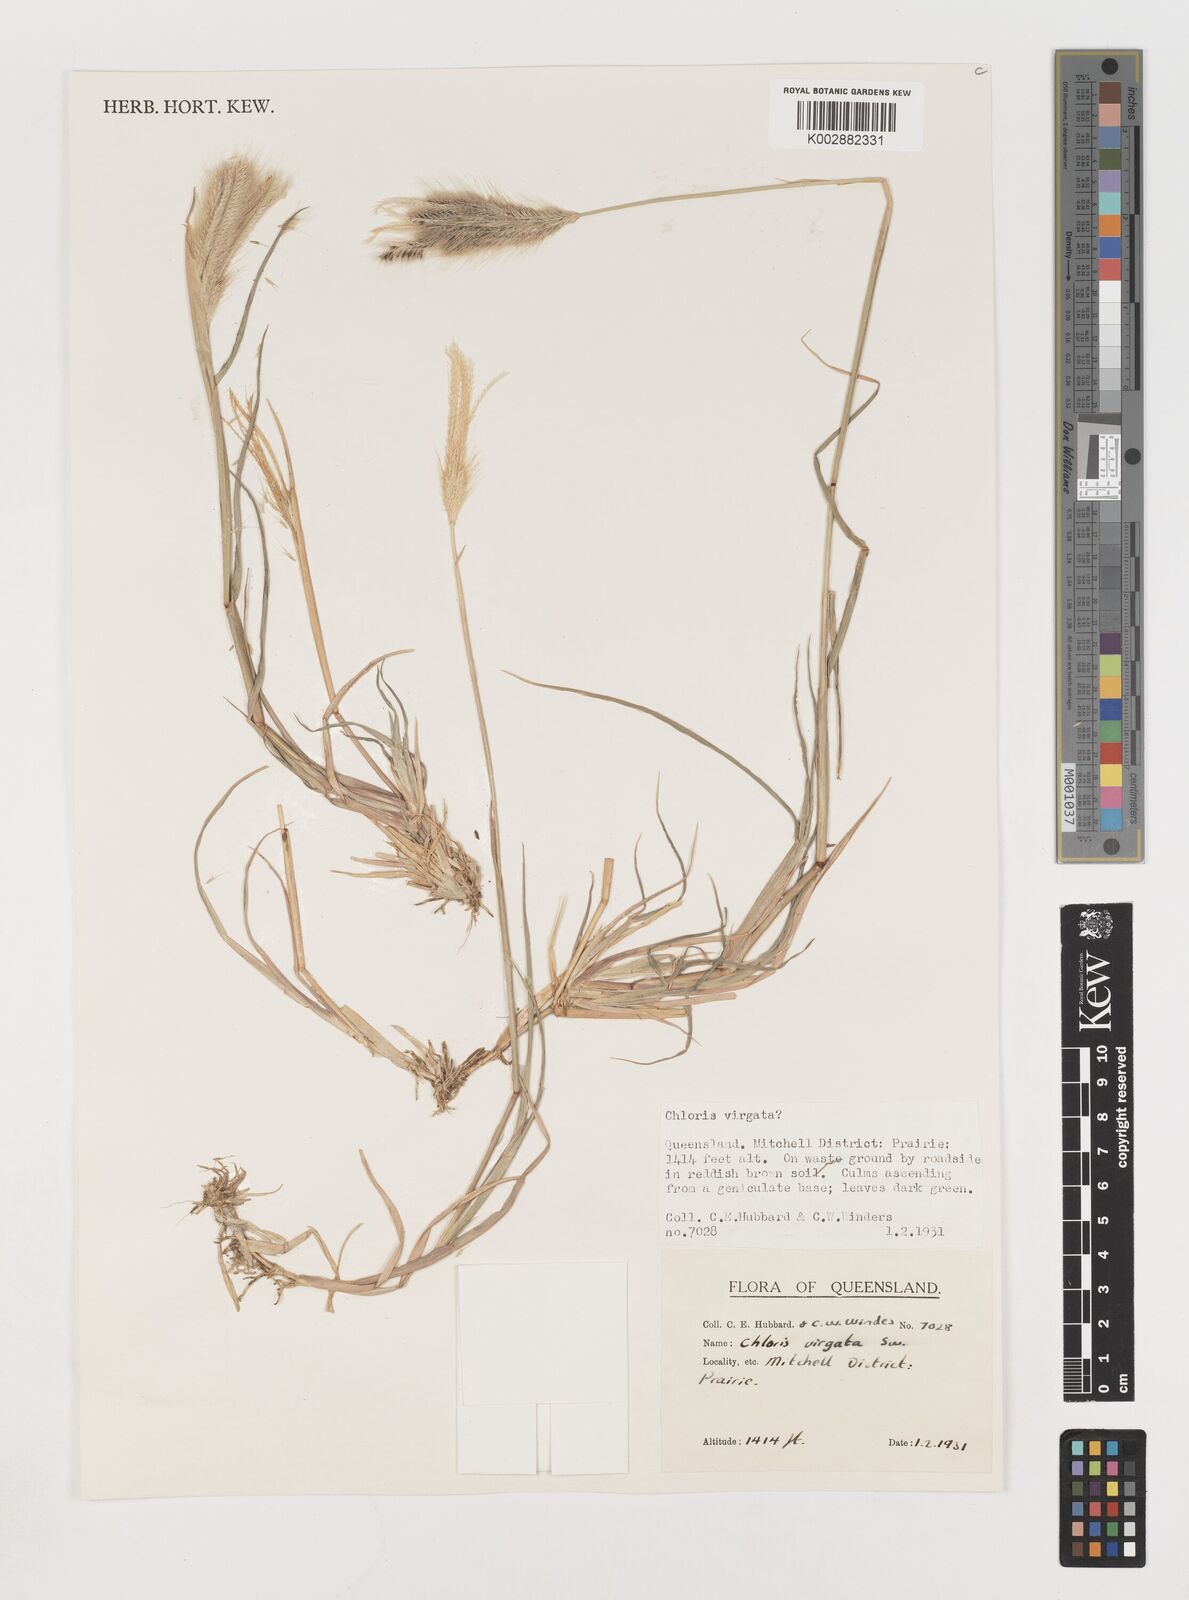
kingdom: Plantae
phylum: Tracheophyta
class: Liliopsida
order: Poales
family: Poaceae
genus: Chloris
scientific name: Chloris virgata
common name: Feathery rhodes-grass
